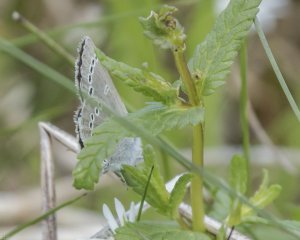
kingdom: Animalia
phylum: Arthropoda
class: Insecta
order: Lepidoptera
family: Lycaenidae
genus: Glaucopsyche
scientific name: Glaucopsyche lygdamus
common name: Silvery Blue
